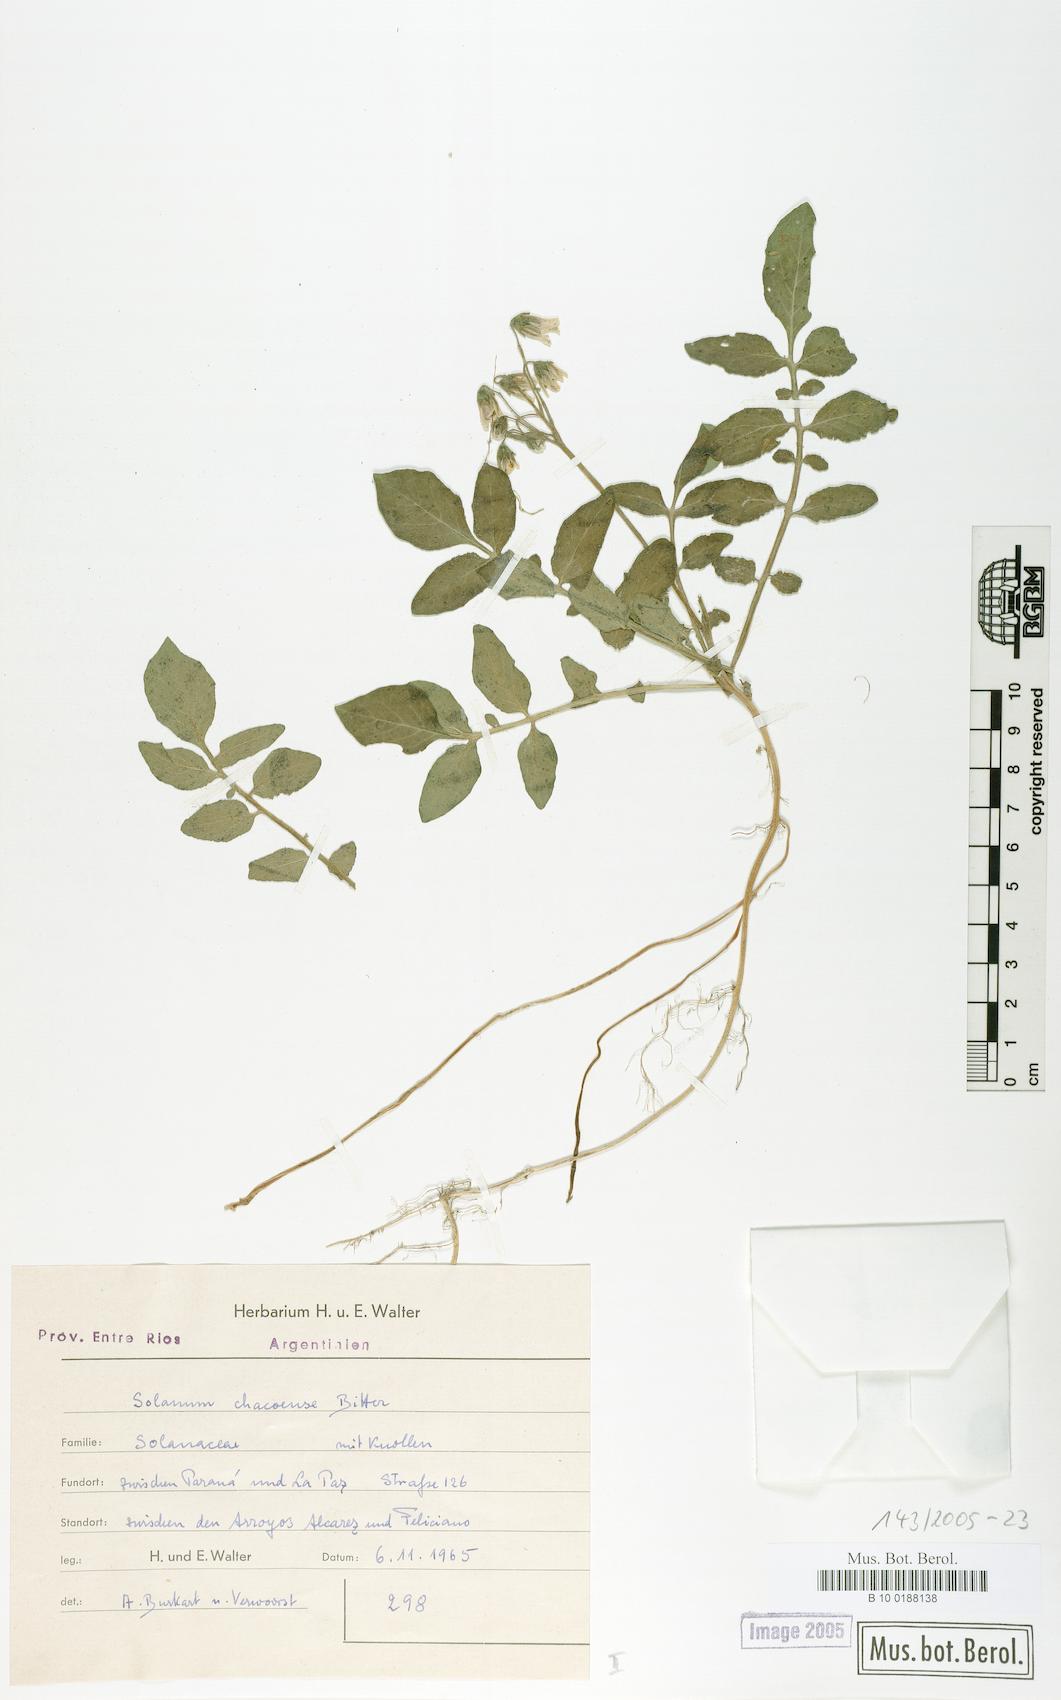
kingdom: Plantae
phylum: Tracheophyta
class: Magnoliopsida
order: Solanales
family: Solanaceae
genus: Solanum
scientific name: Solanum chacoense
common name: Chaco potato
